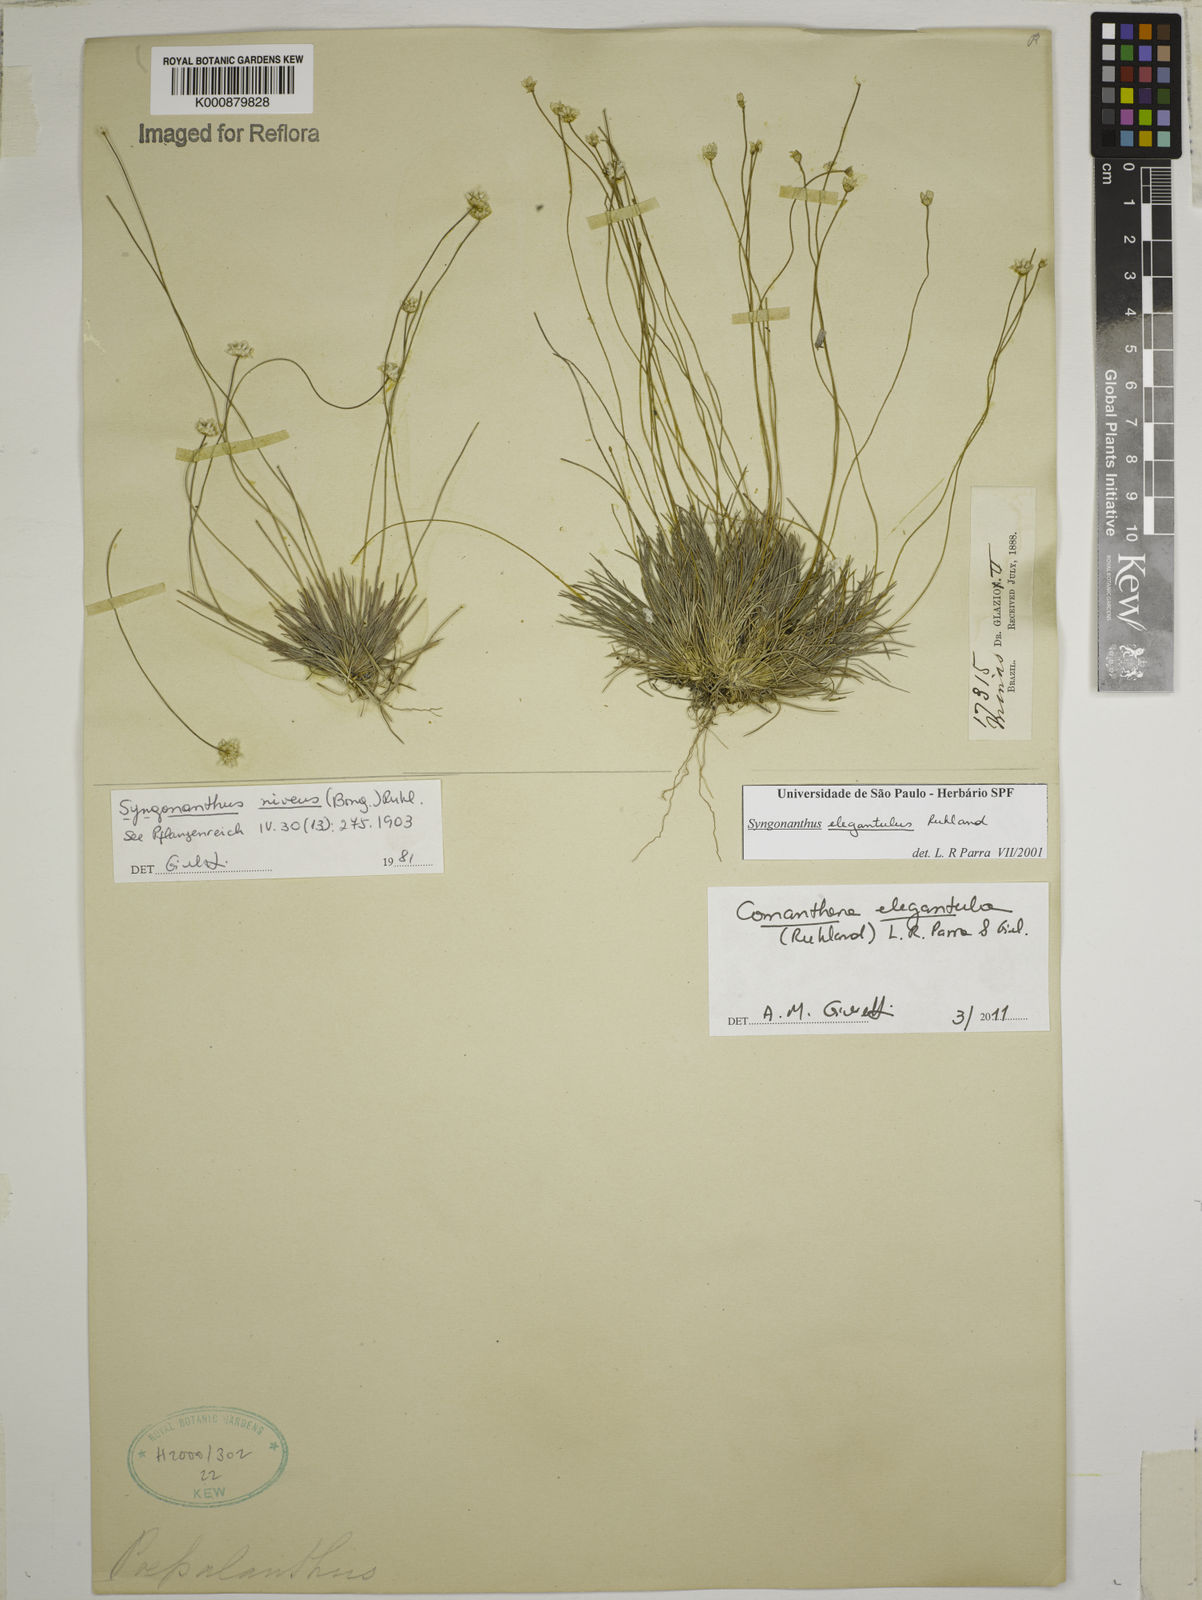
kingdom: Plantae
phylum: Tracheophyta
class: Liliopsida
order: Poales
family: Eriocaulaceae
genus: Comanthera
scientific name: Comanthera elegantula
